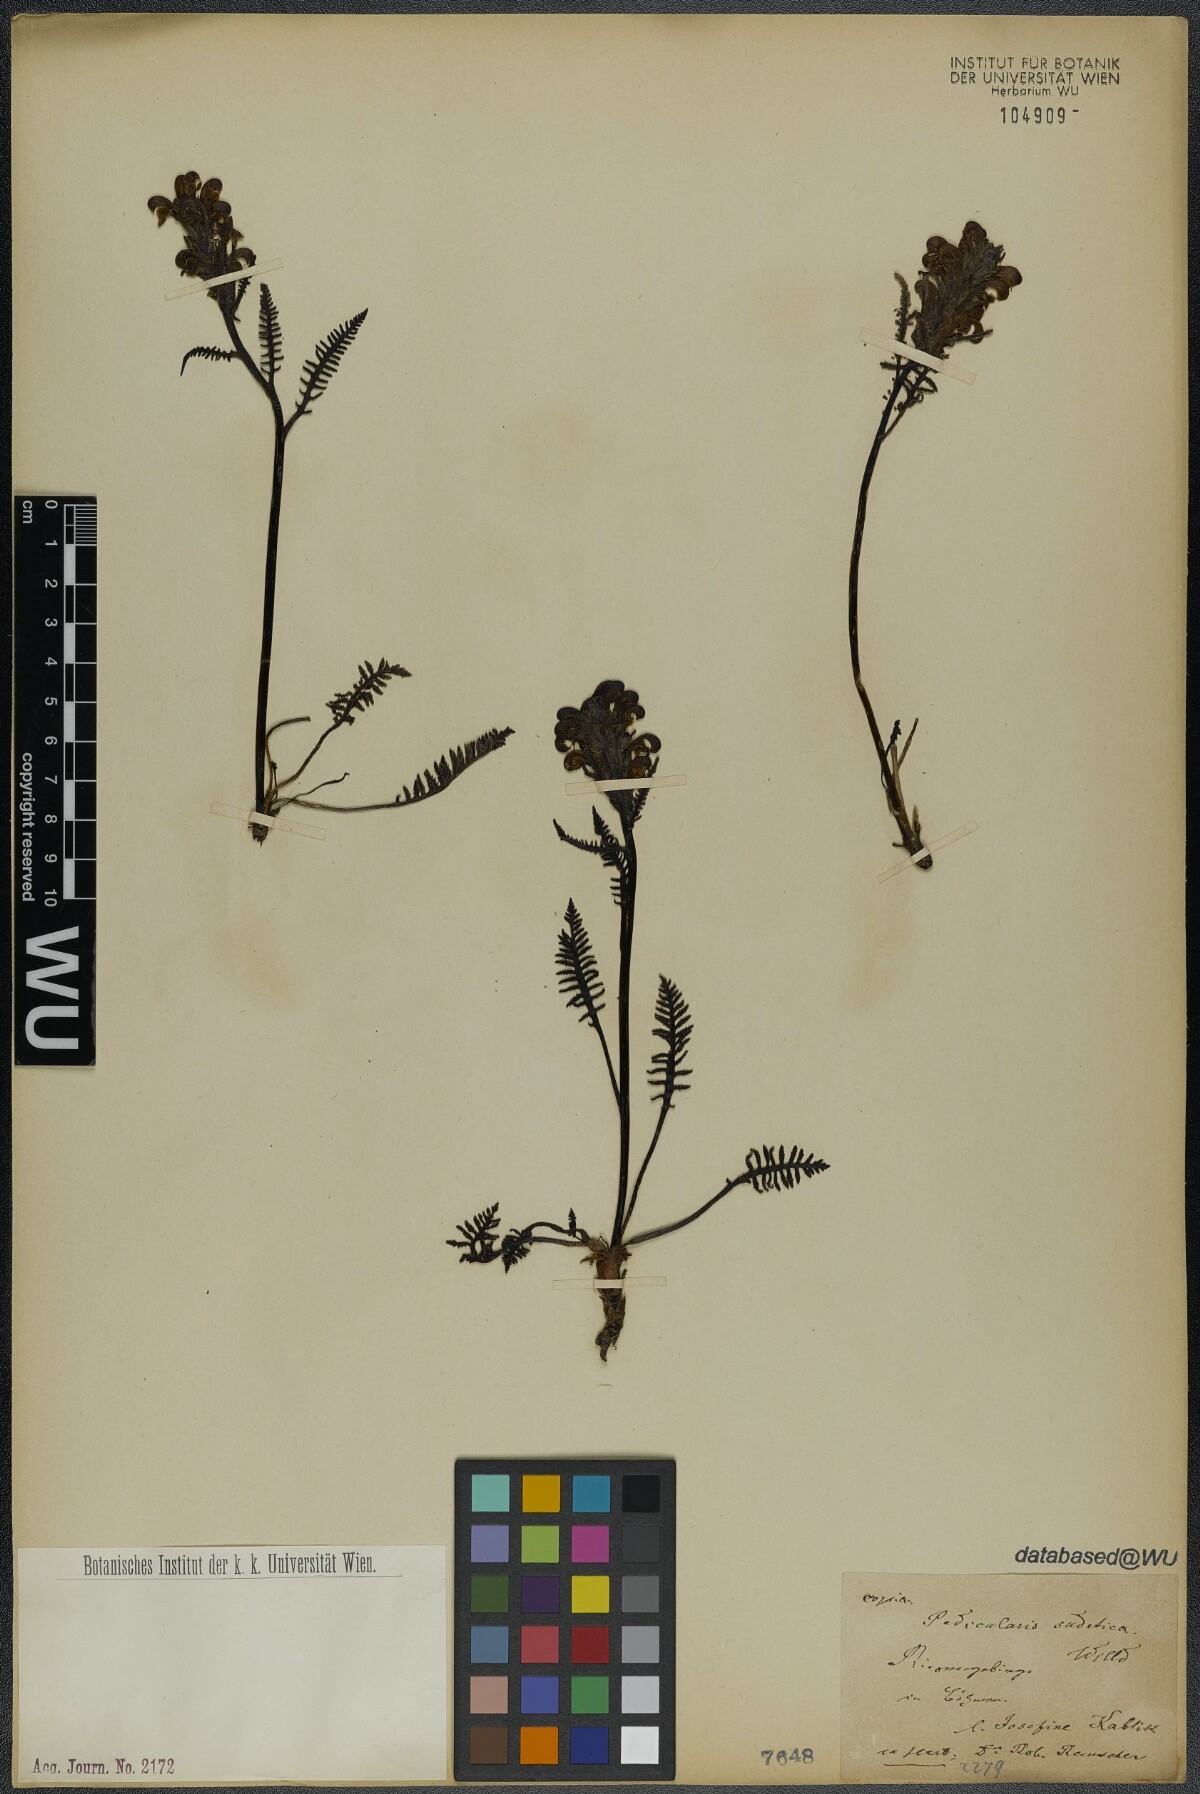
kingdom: Plantae
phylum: Tracheophyta
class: Magnoliopsida
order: Lamiales
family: Orobanchaceae
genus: Pedicularis
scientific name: Pedicularis sudetica
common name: Sudeten lousewort
